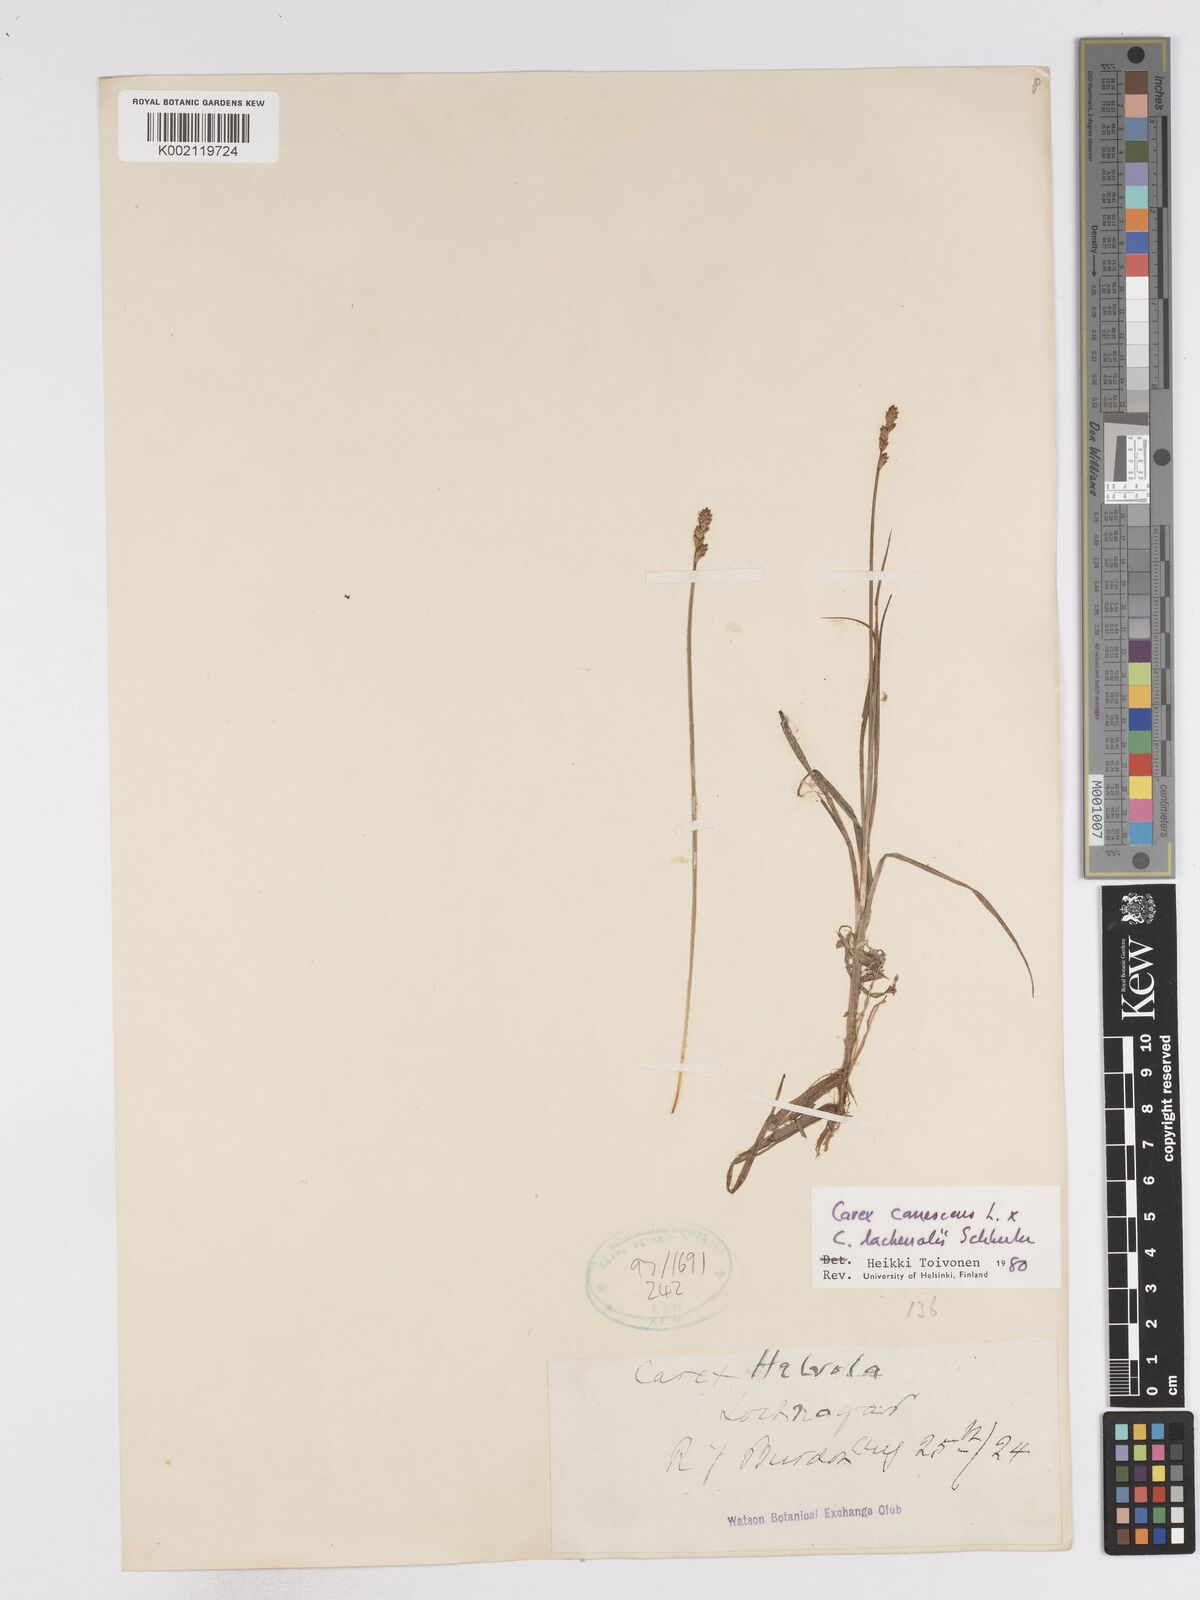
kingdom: Plantae
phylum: Tracheophyta
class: Liliopsida
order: Poales
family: Cyperaceae
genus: Carex
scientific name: Carex helvola
